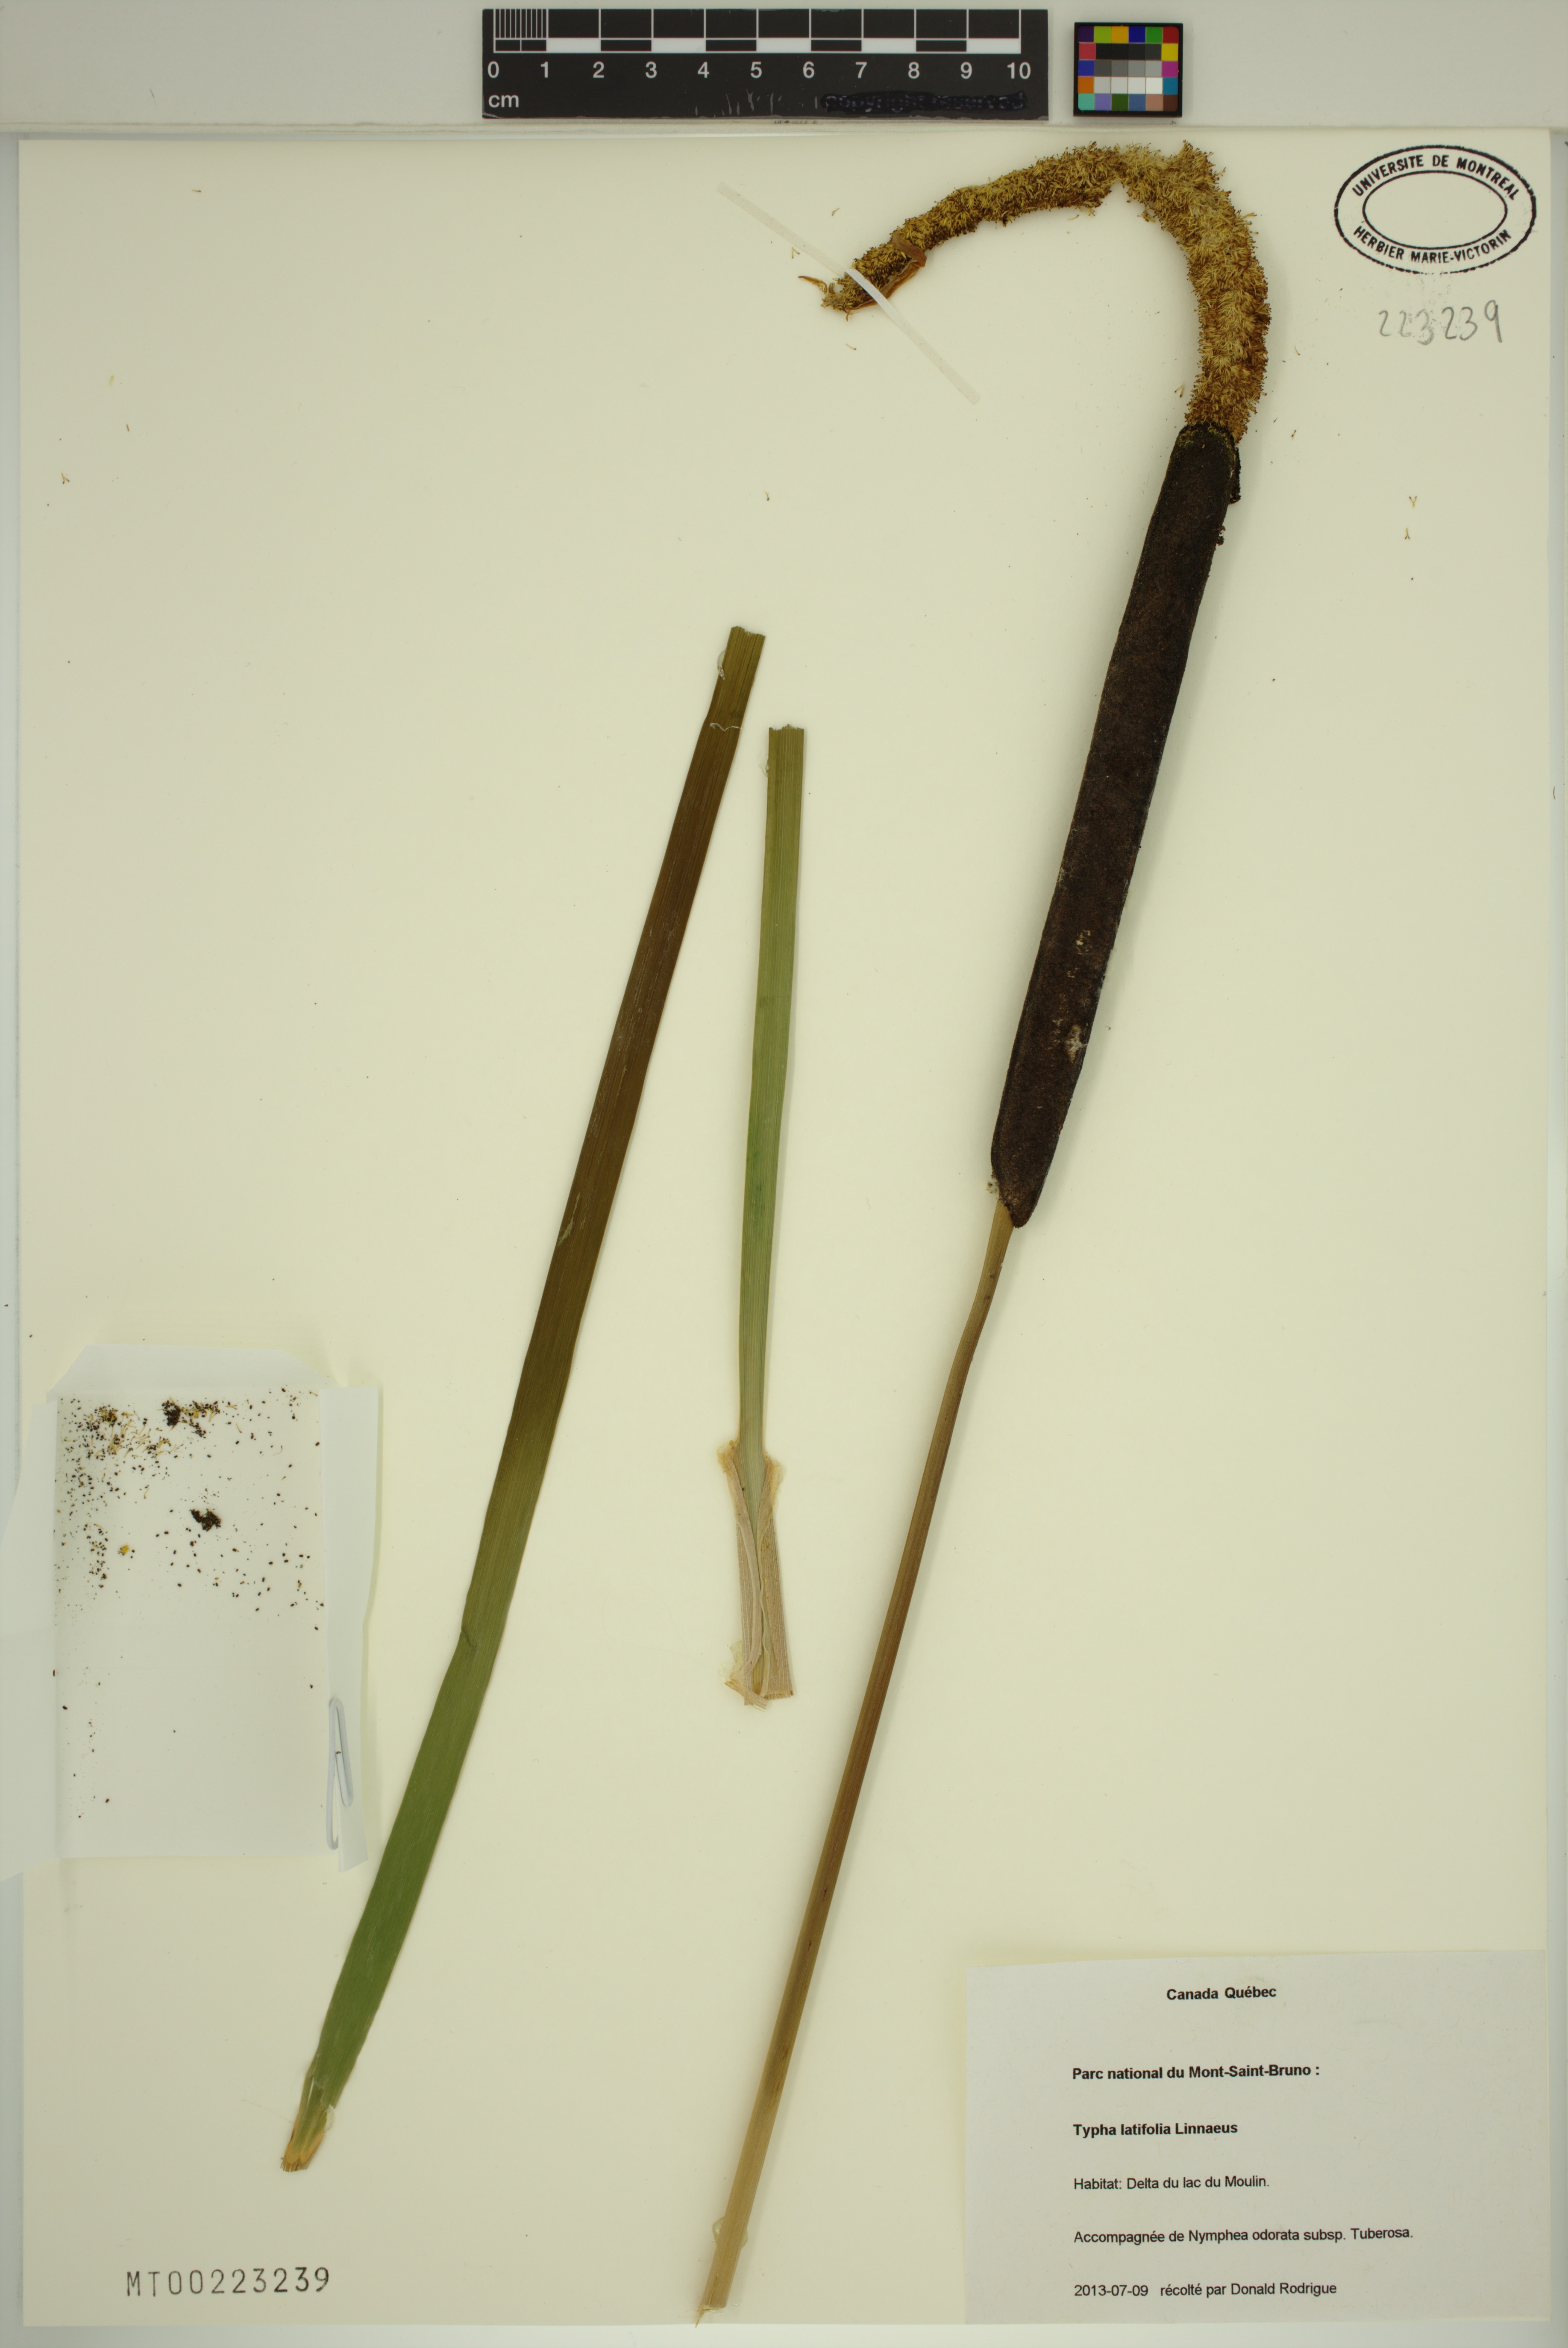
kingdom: Plantae
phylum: Tracheophyta
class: Liliopsida
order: Poales
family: Typhaceae
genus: Typha
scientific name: Typha latifolia
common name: Broadleaf cattail
